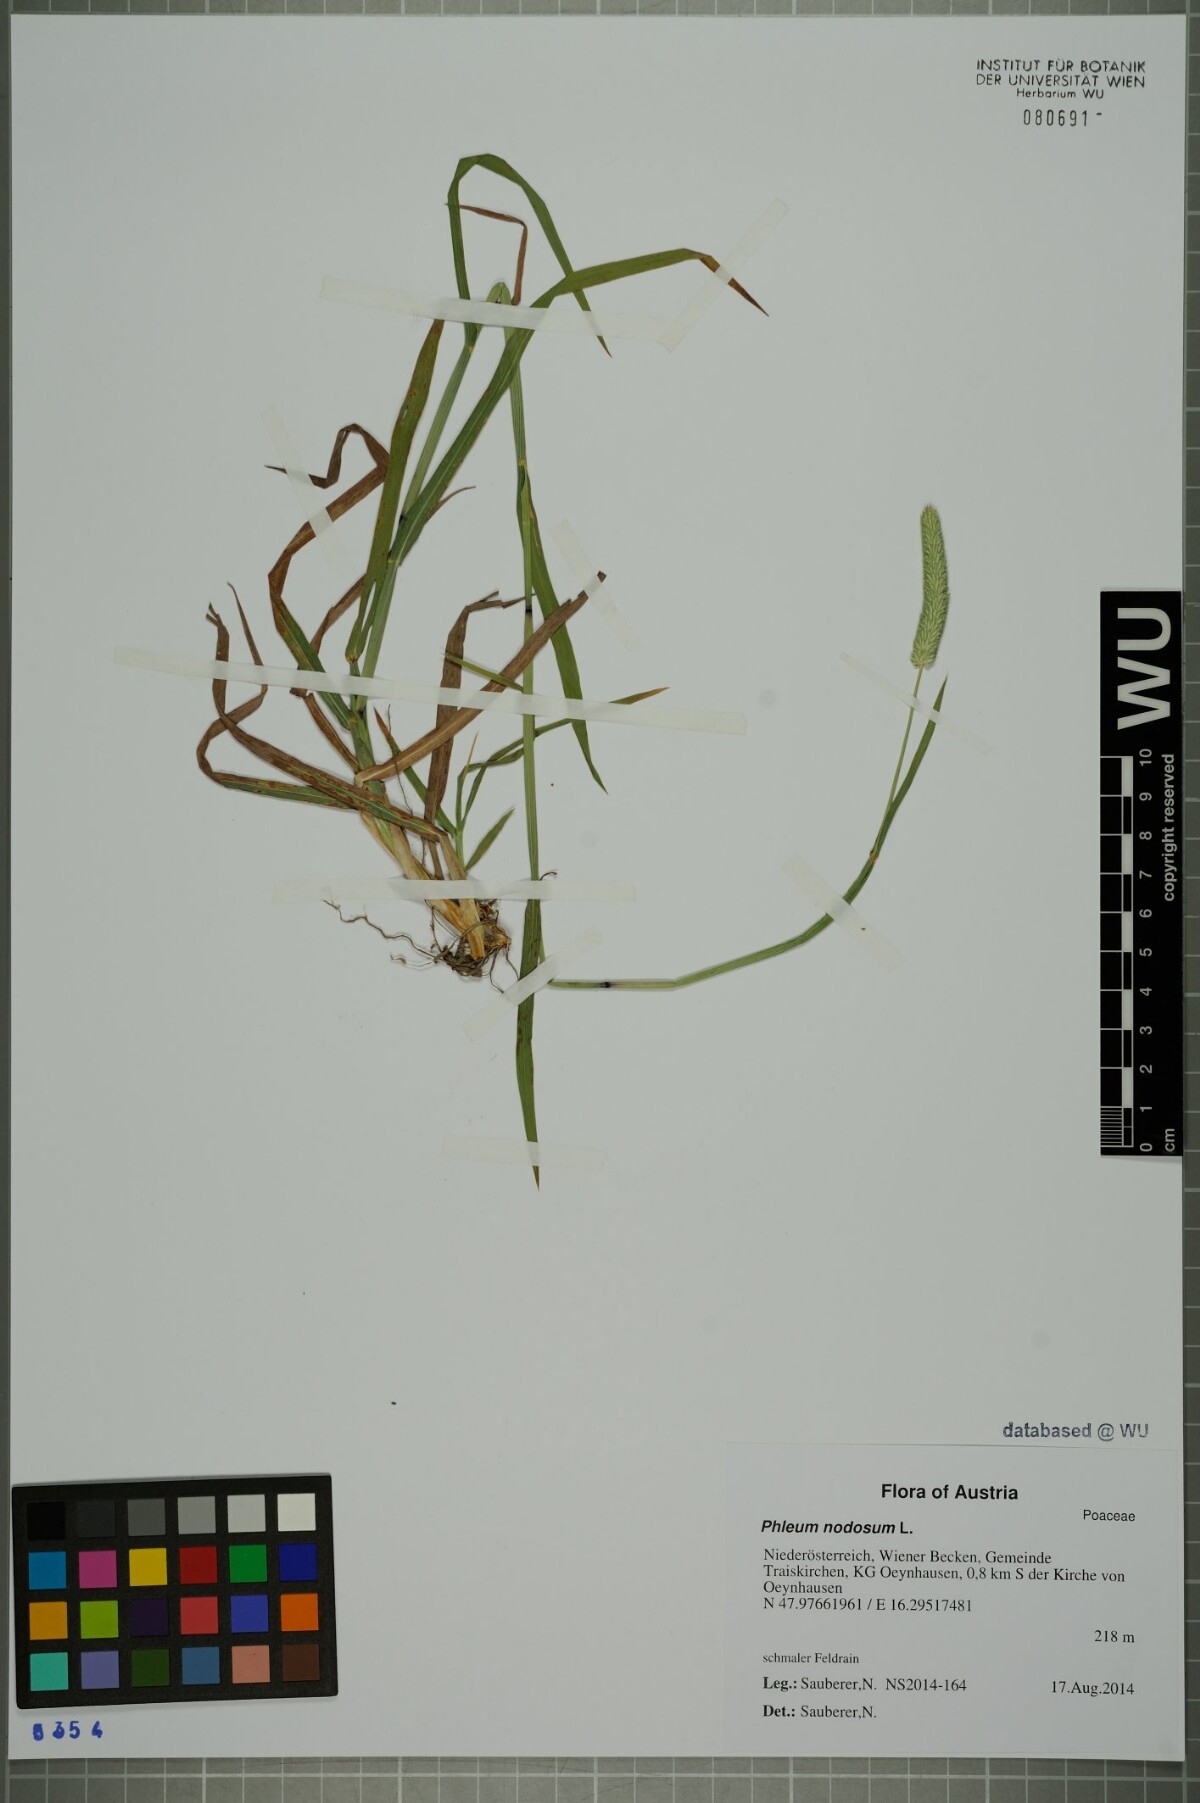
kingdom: Plantae
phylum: Tracheophyta
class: Liliopsida
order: Poales
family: Poaceae
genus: Phleum
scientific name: Phleum pratense
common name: Timothy grass
